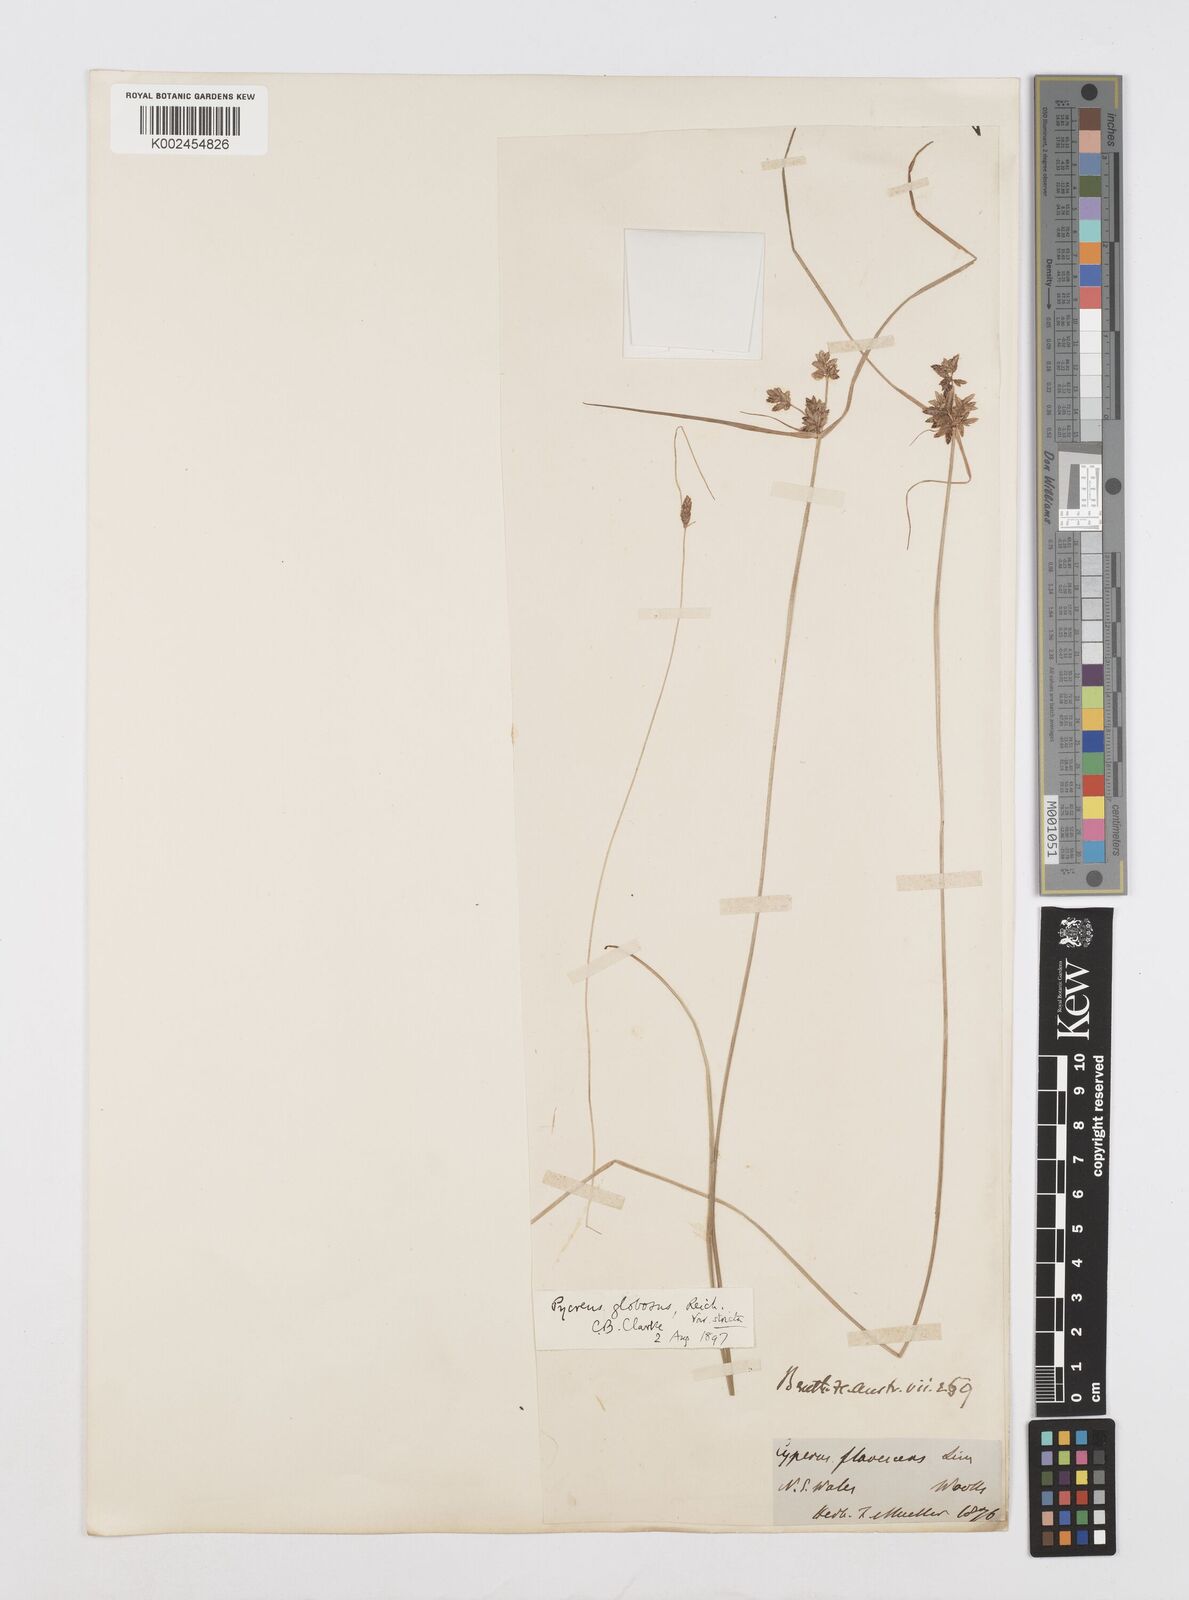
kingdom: Plantae
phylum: Tracheophyta
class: Liliopsida
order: Poales
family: Cyperaceae
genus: Cyperus
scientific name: Cyperus flavidus
